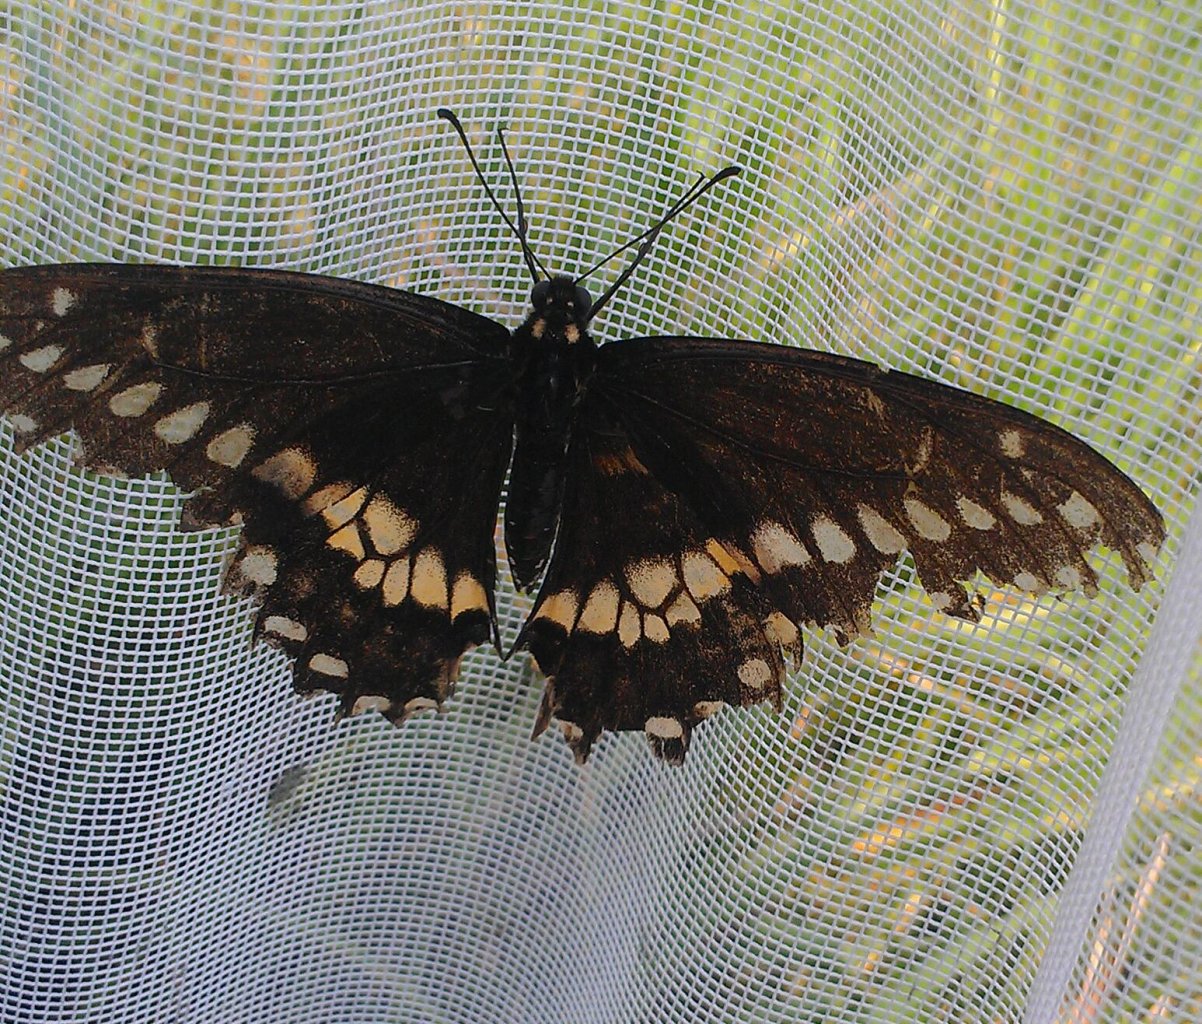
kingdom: Animalia
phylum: Arthropoda
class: Insecta
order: Lepidoptera
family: Papilionidae
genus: Papilio
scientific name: Papilio polyxenes
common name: Black Swallowtail
